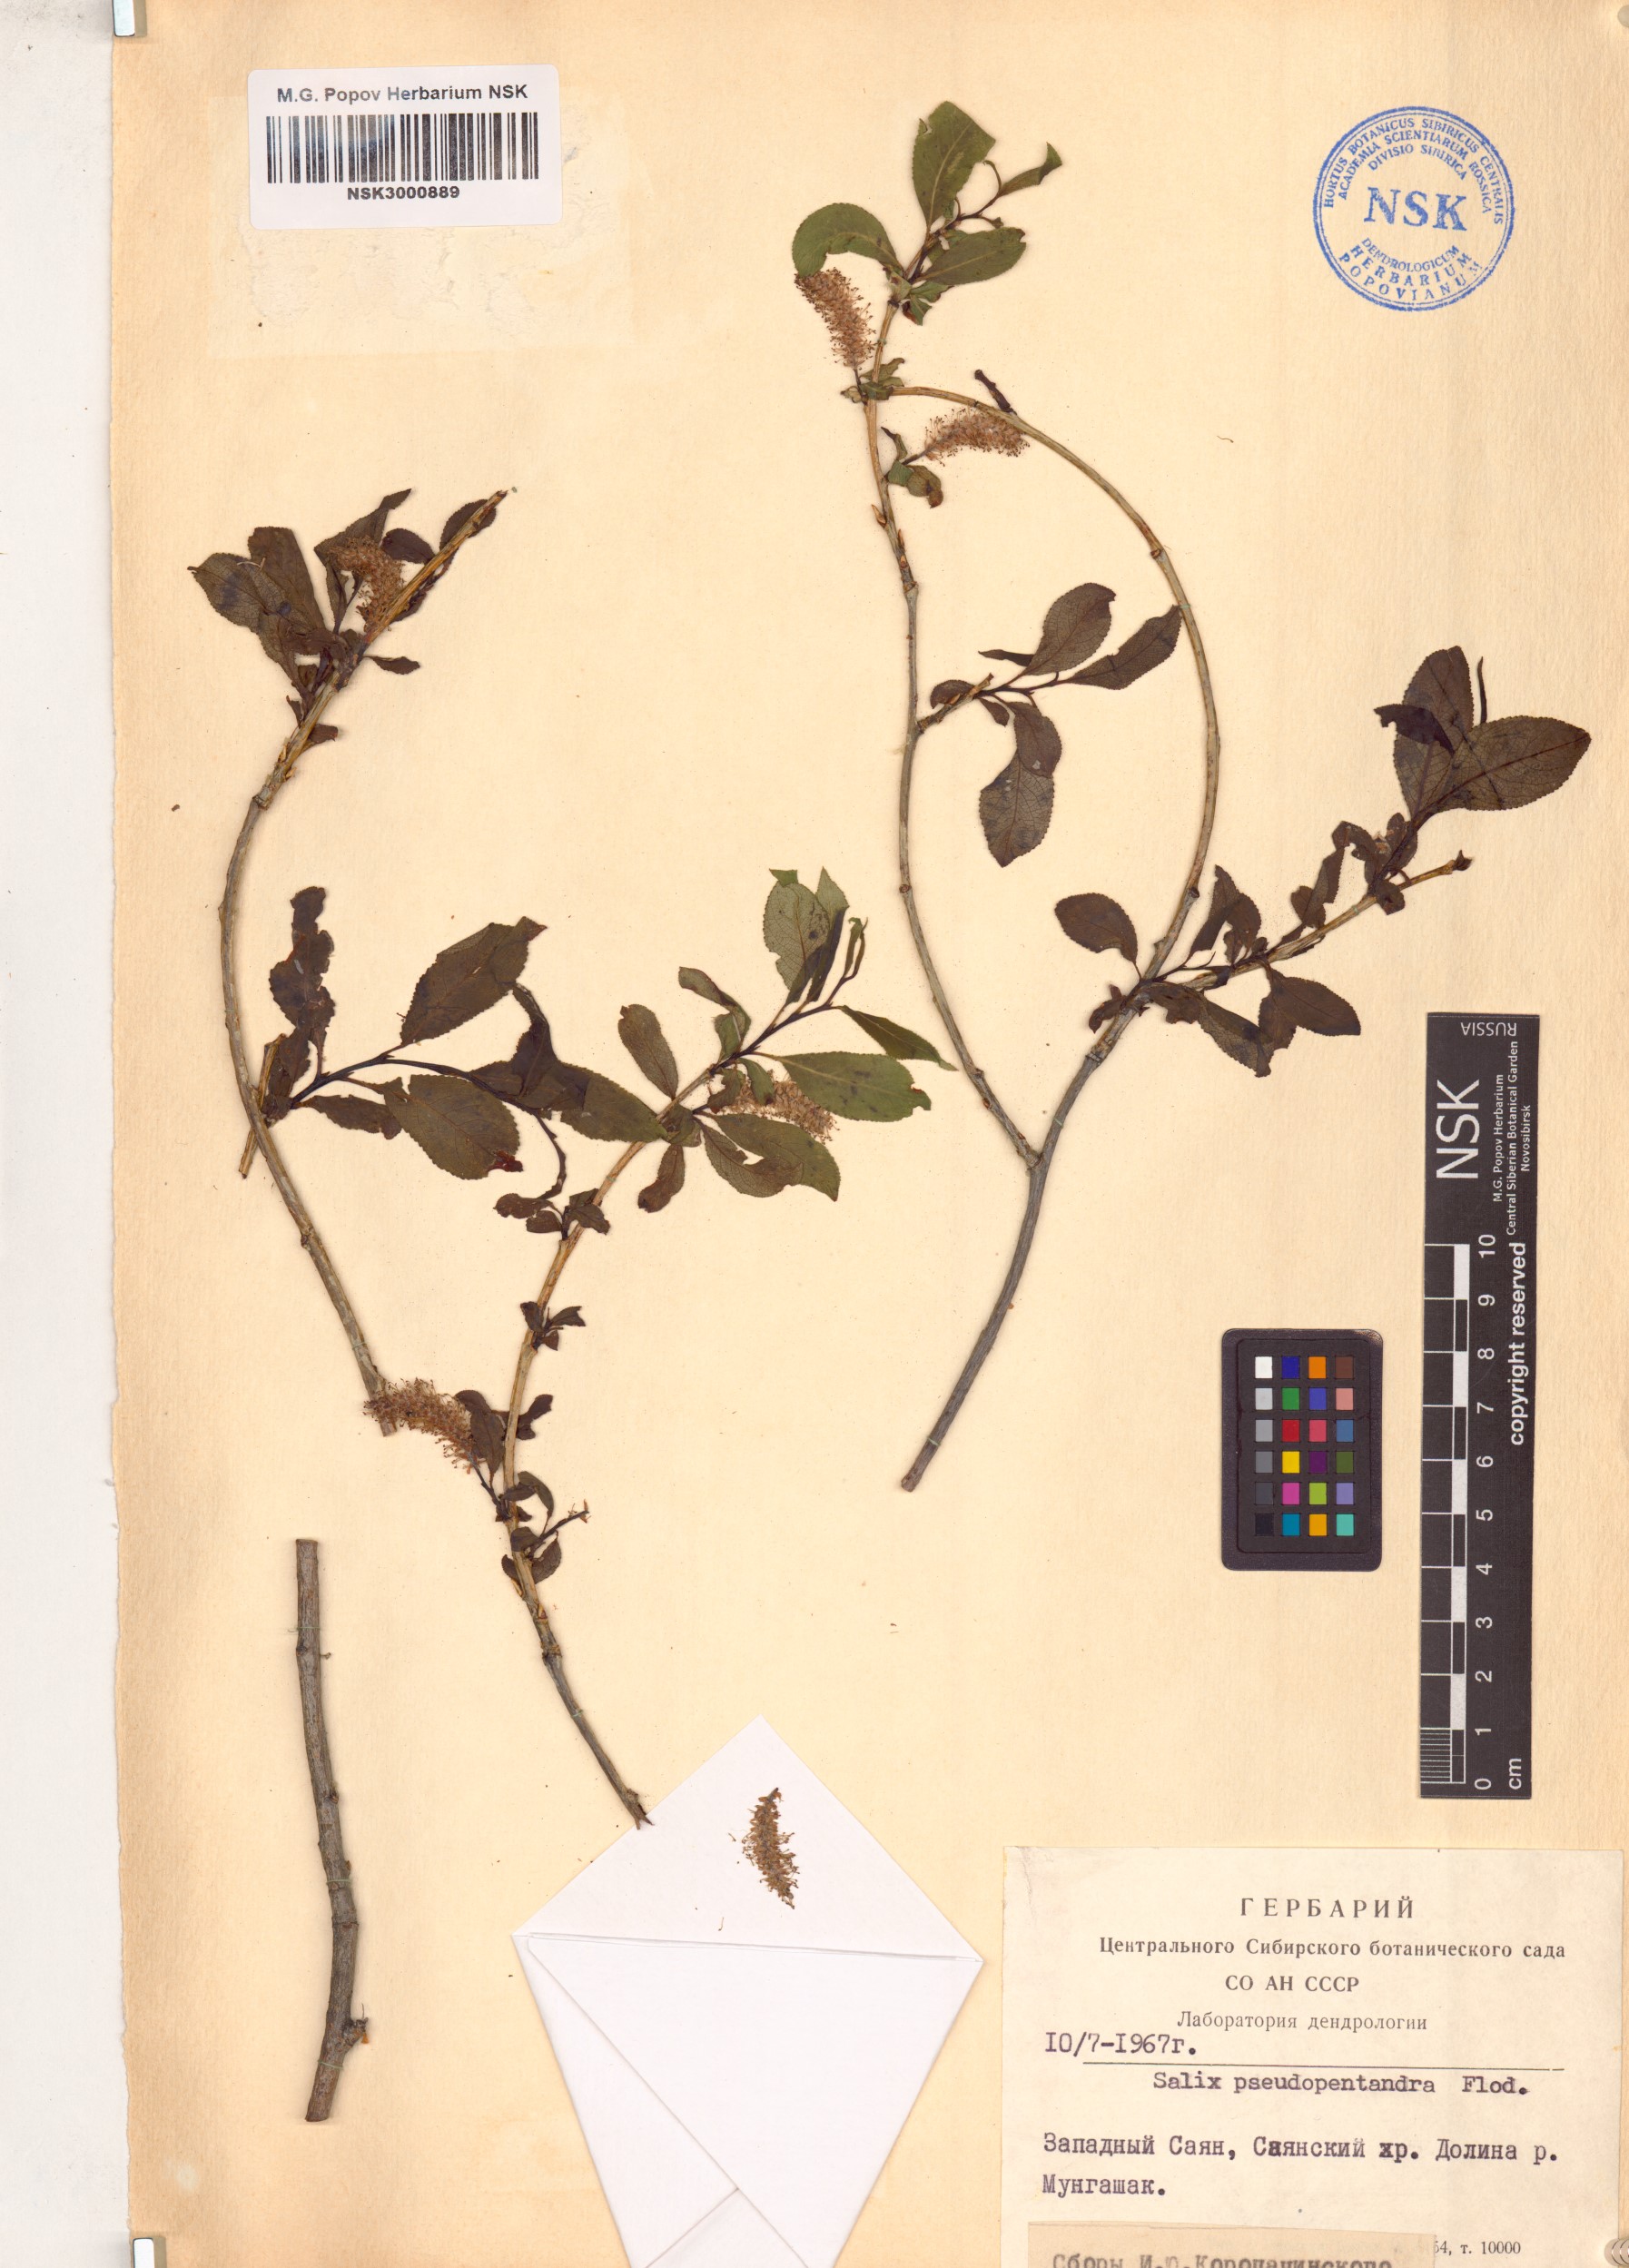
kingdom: Plantae
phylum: Tracheophyta
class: Magnoliopsida
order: Malpighiales
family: Salicaceae
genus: Salix
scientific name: Salix pseudopentandra
